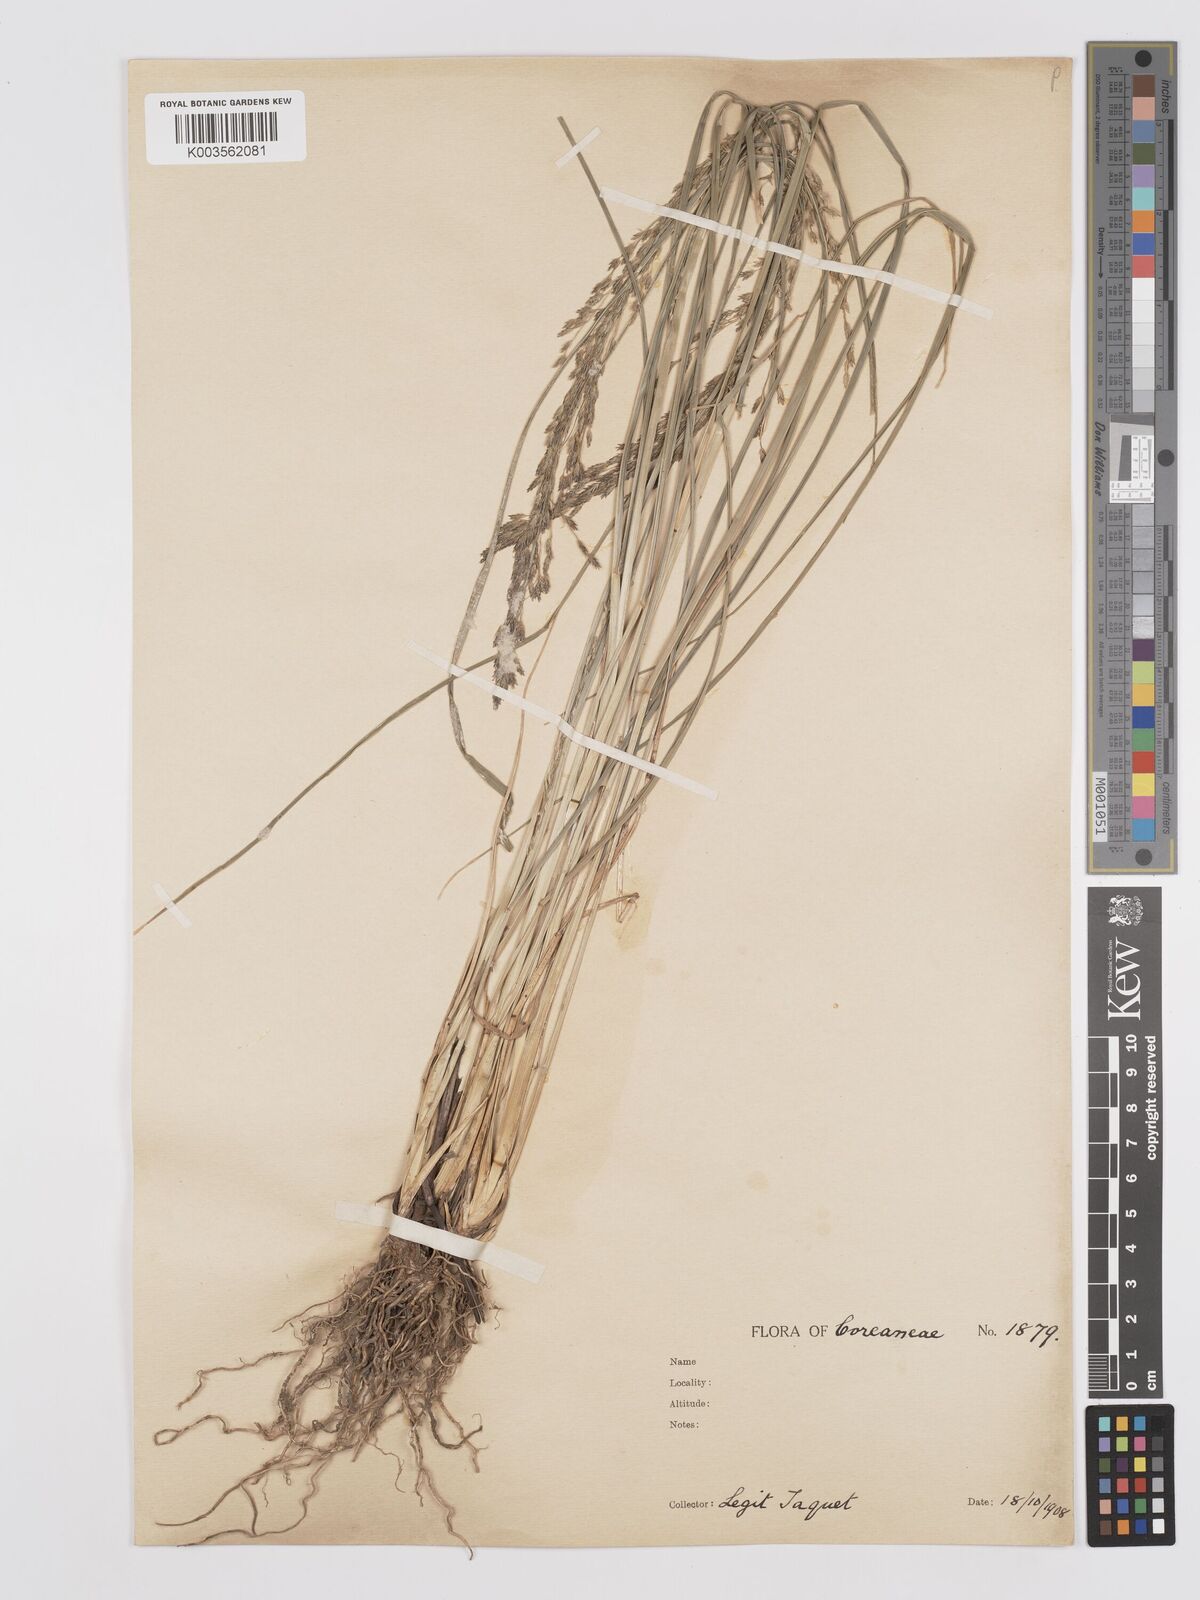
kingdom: Plantae
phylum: Tracheophyta
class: Liliopsida
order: Poales
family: Poaceae
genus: Eragrostis
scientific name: Eragrostis ferruginea
